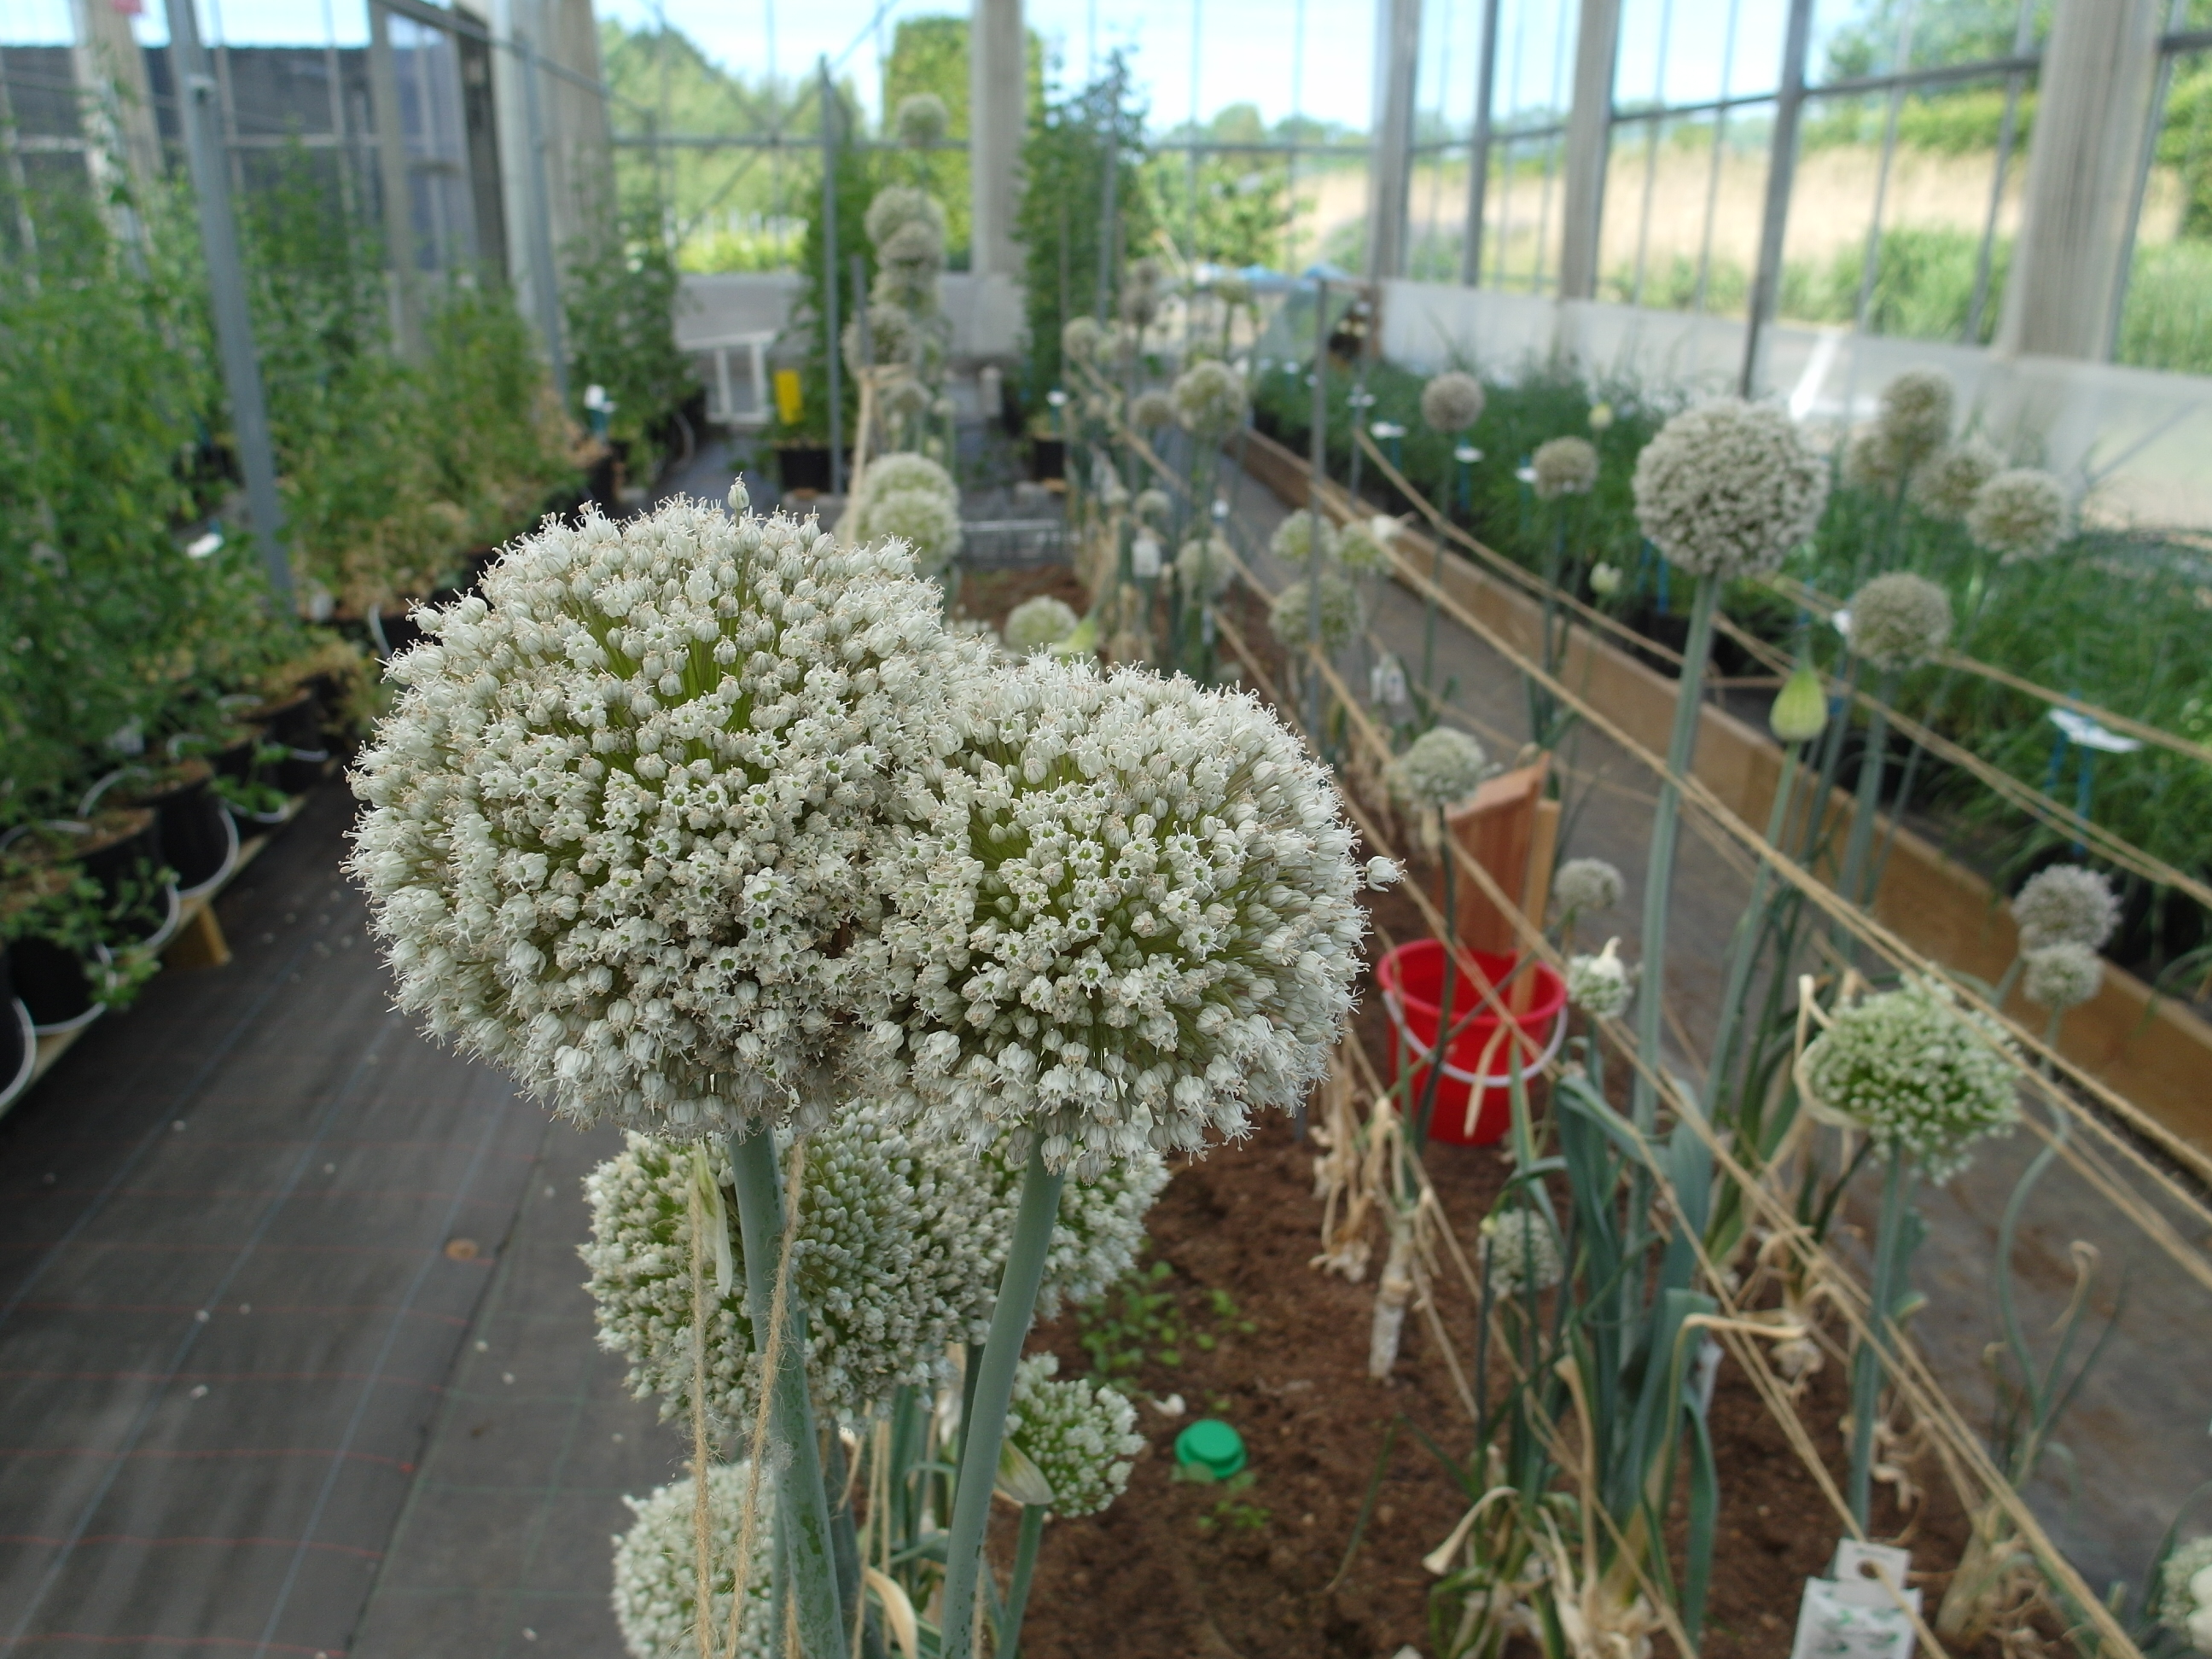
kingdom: Plantae
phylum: Tracheophyta
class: Liliopsida
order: Asparagales
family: Amaryllidaceae
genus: Allium
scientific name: Allium ampeloprasum
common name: Wild leek
